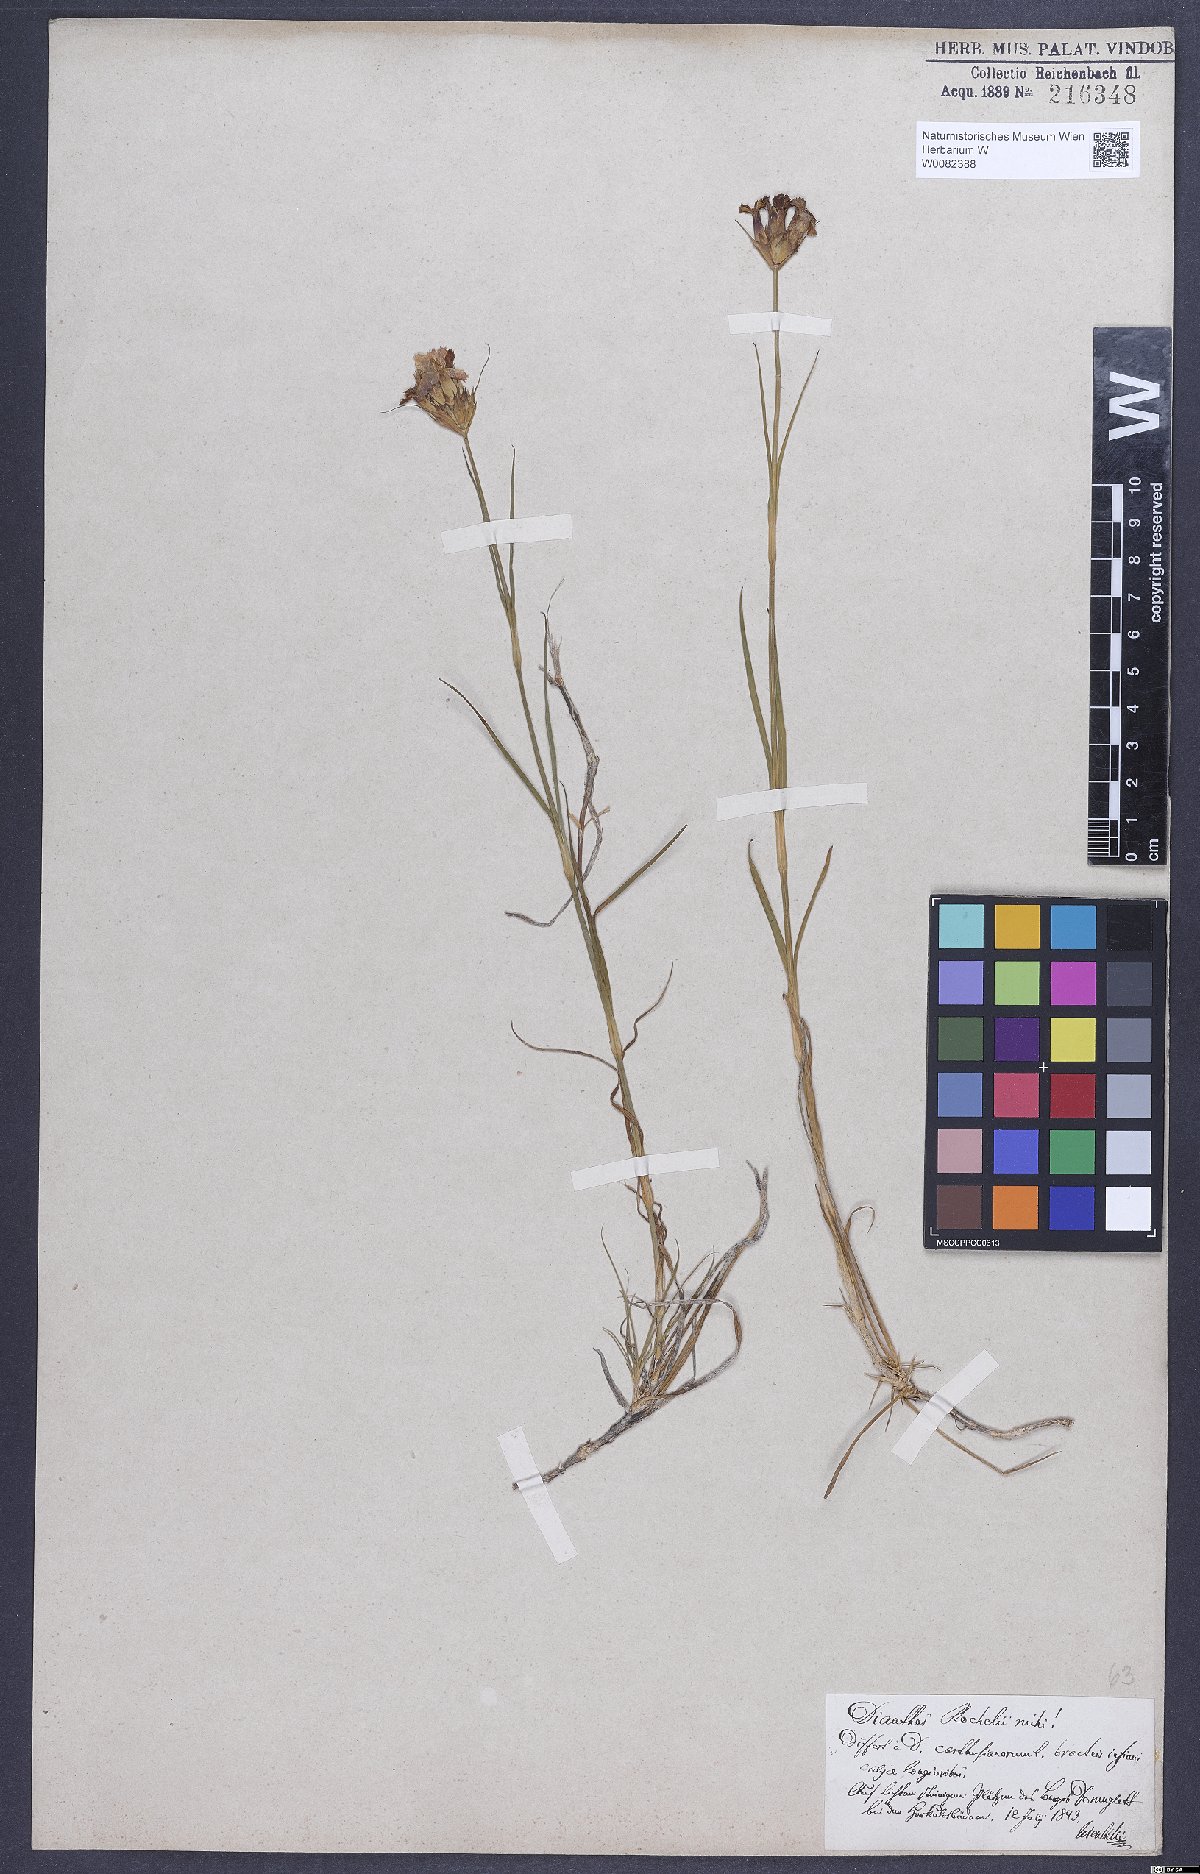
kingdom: Plantae
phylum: Tracheophyta
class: Magnoliopsida
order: Caryophyllales
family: Caryophyllaceae
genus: Dianthus
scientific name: Dianthus carthusianorum
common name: Carthusian pink
